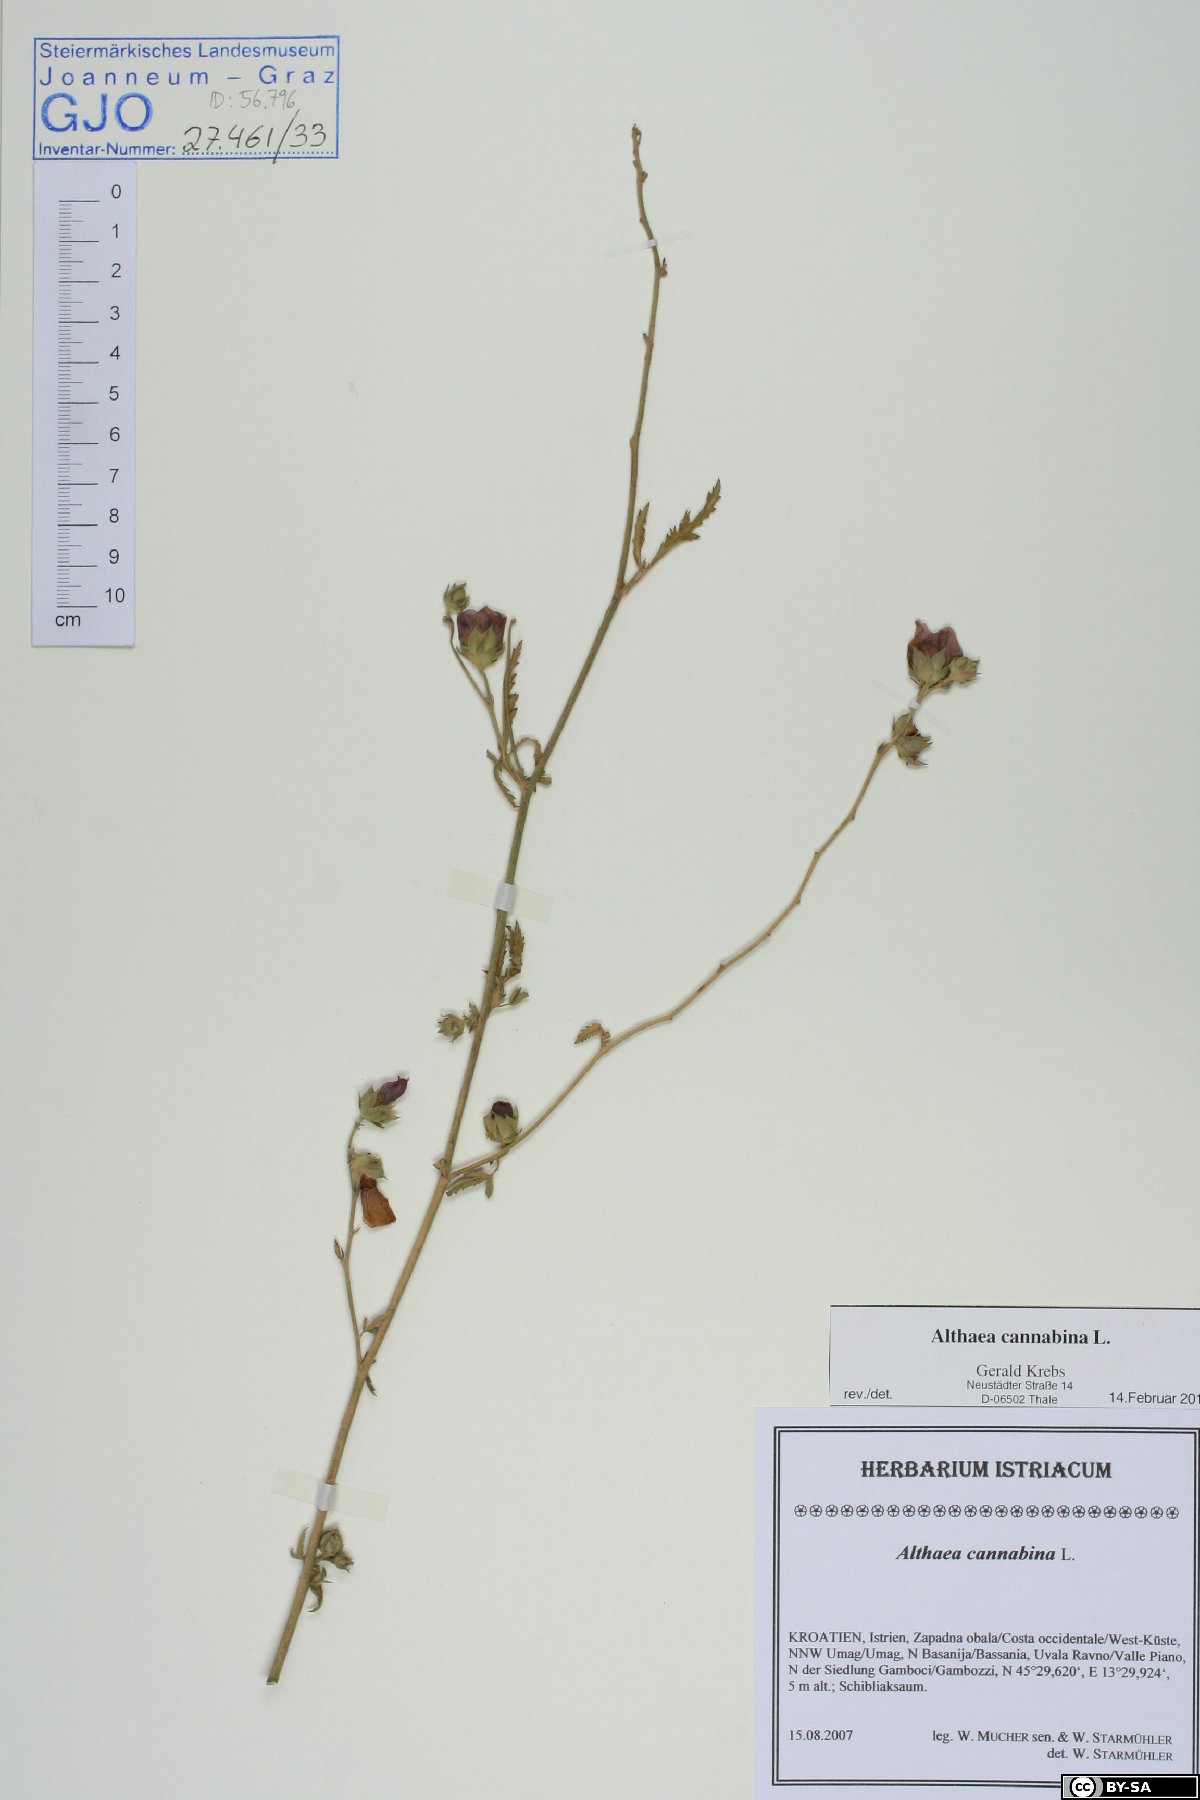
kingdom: Plantae
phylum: Tracheophyta
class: Magnoliopsida
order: Malvales
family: Malvaceae
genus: Althaea
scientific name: Althaea cannabina
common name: Palm-leaf marshmallow
